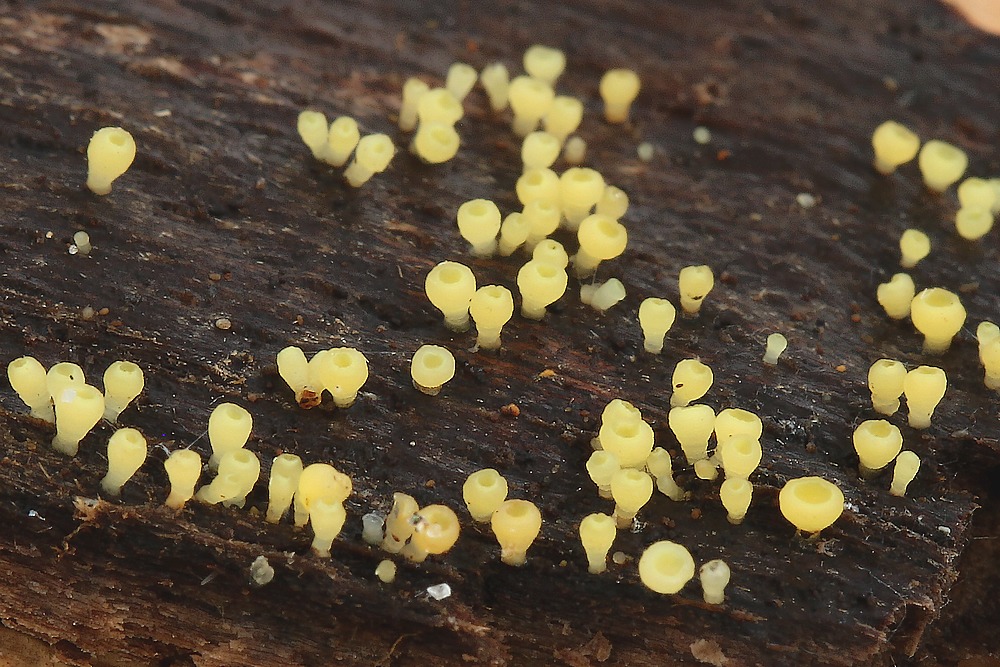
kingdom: Fungi
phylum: Ascomycota
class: Leotiomycetes
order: Helotiales
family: Helotiaceae
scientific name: Helotiaceae
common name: stilkskivefamilien
